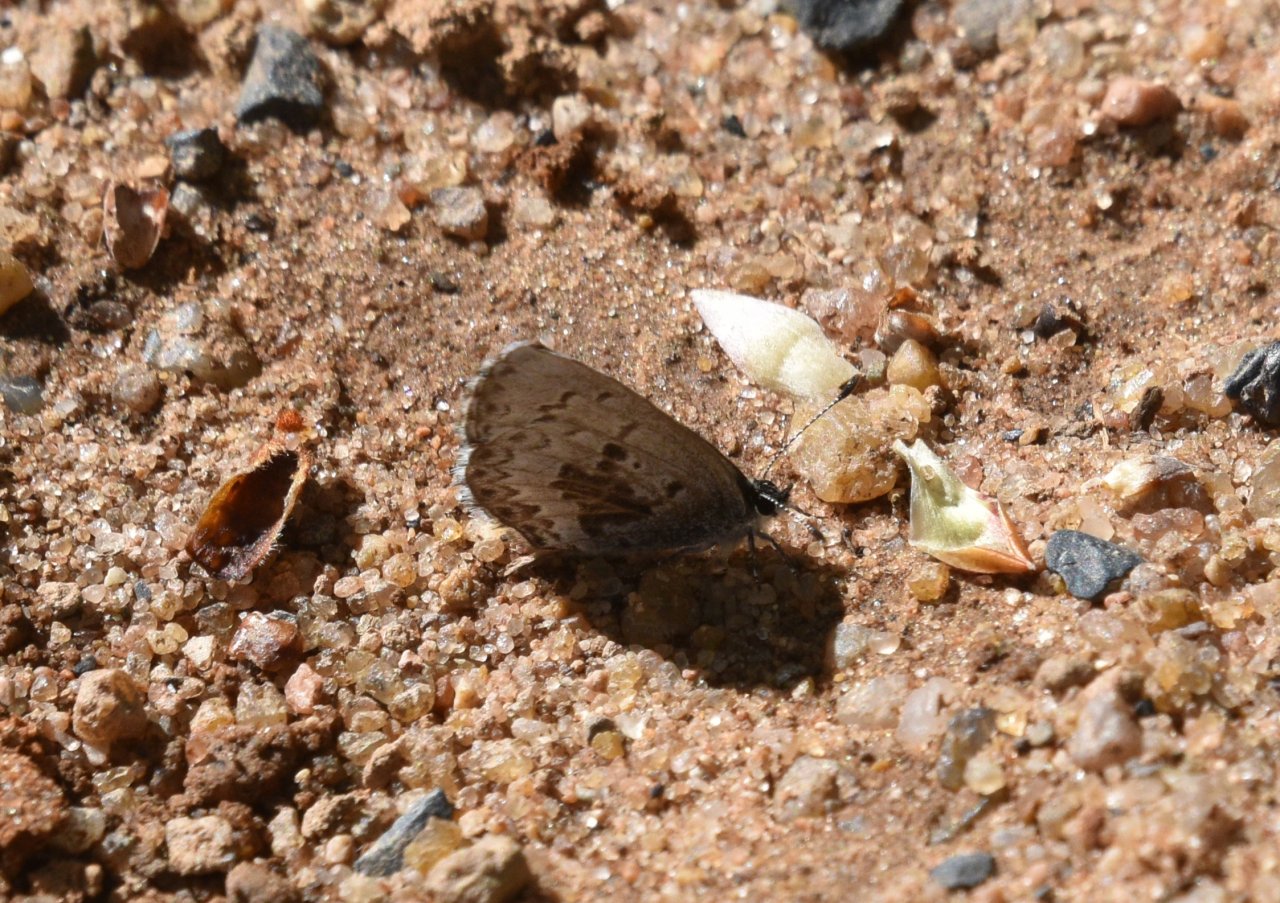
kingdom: Animalia
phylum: Arthropoda
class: Insecta
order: Lepidoptera
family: Lycaenidae
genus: Celastrina
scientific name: Celastrina lucia
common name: Northern Spring Azure
